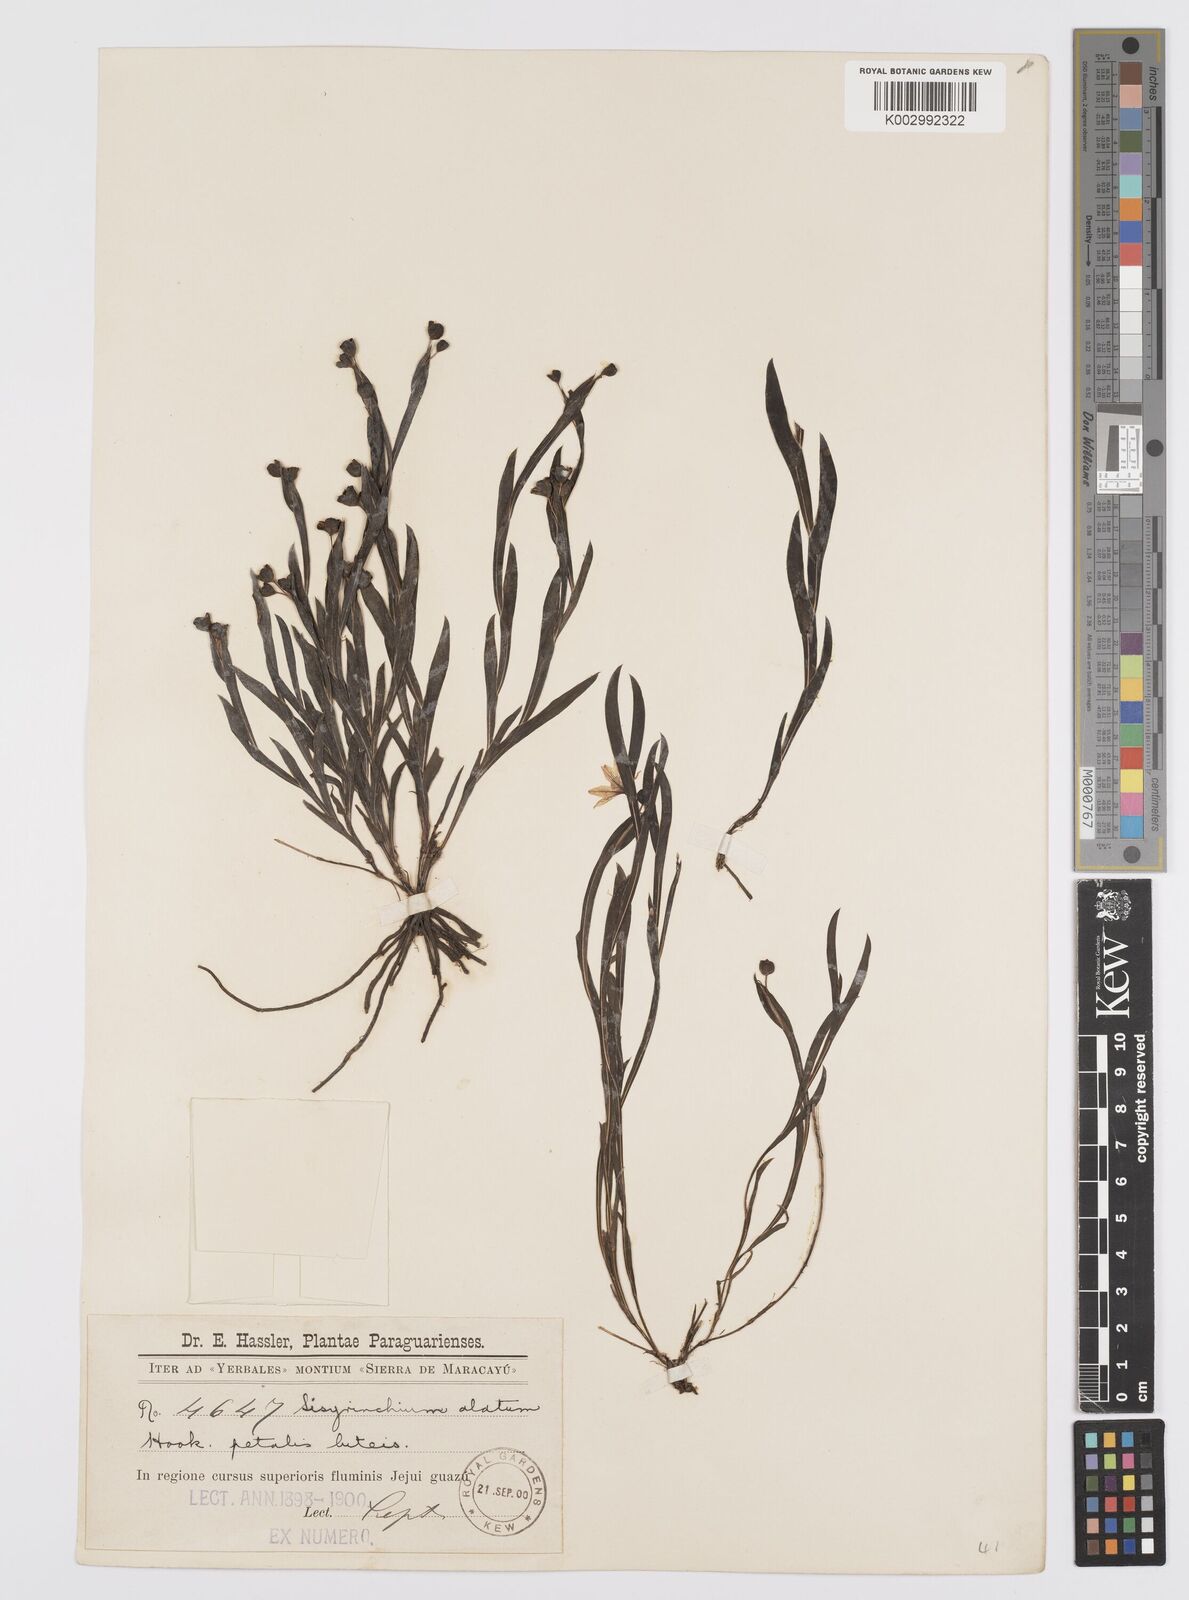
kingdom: Plantae
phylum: Tracheophyta
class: Liliopsida
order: Asparagales
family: Iridaceae
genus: Sisyrinchium
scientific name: Sisyrinchium vaginatum
